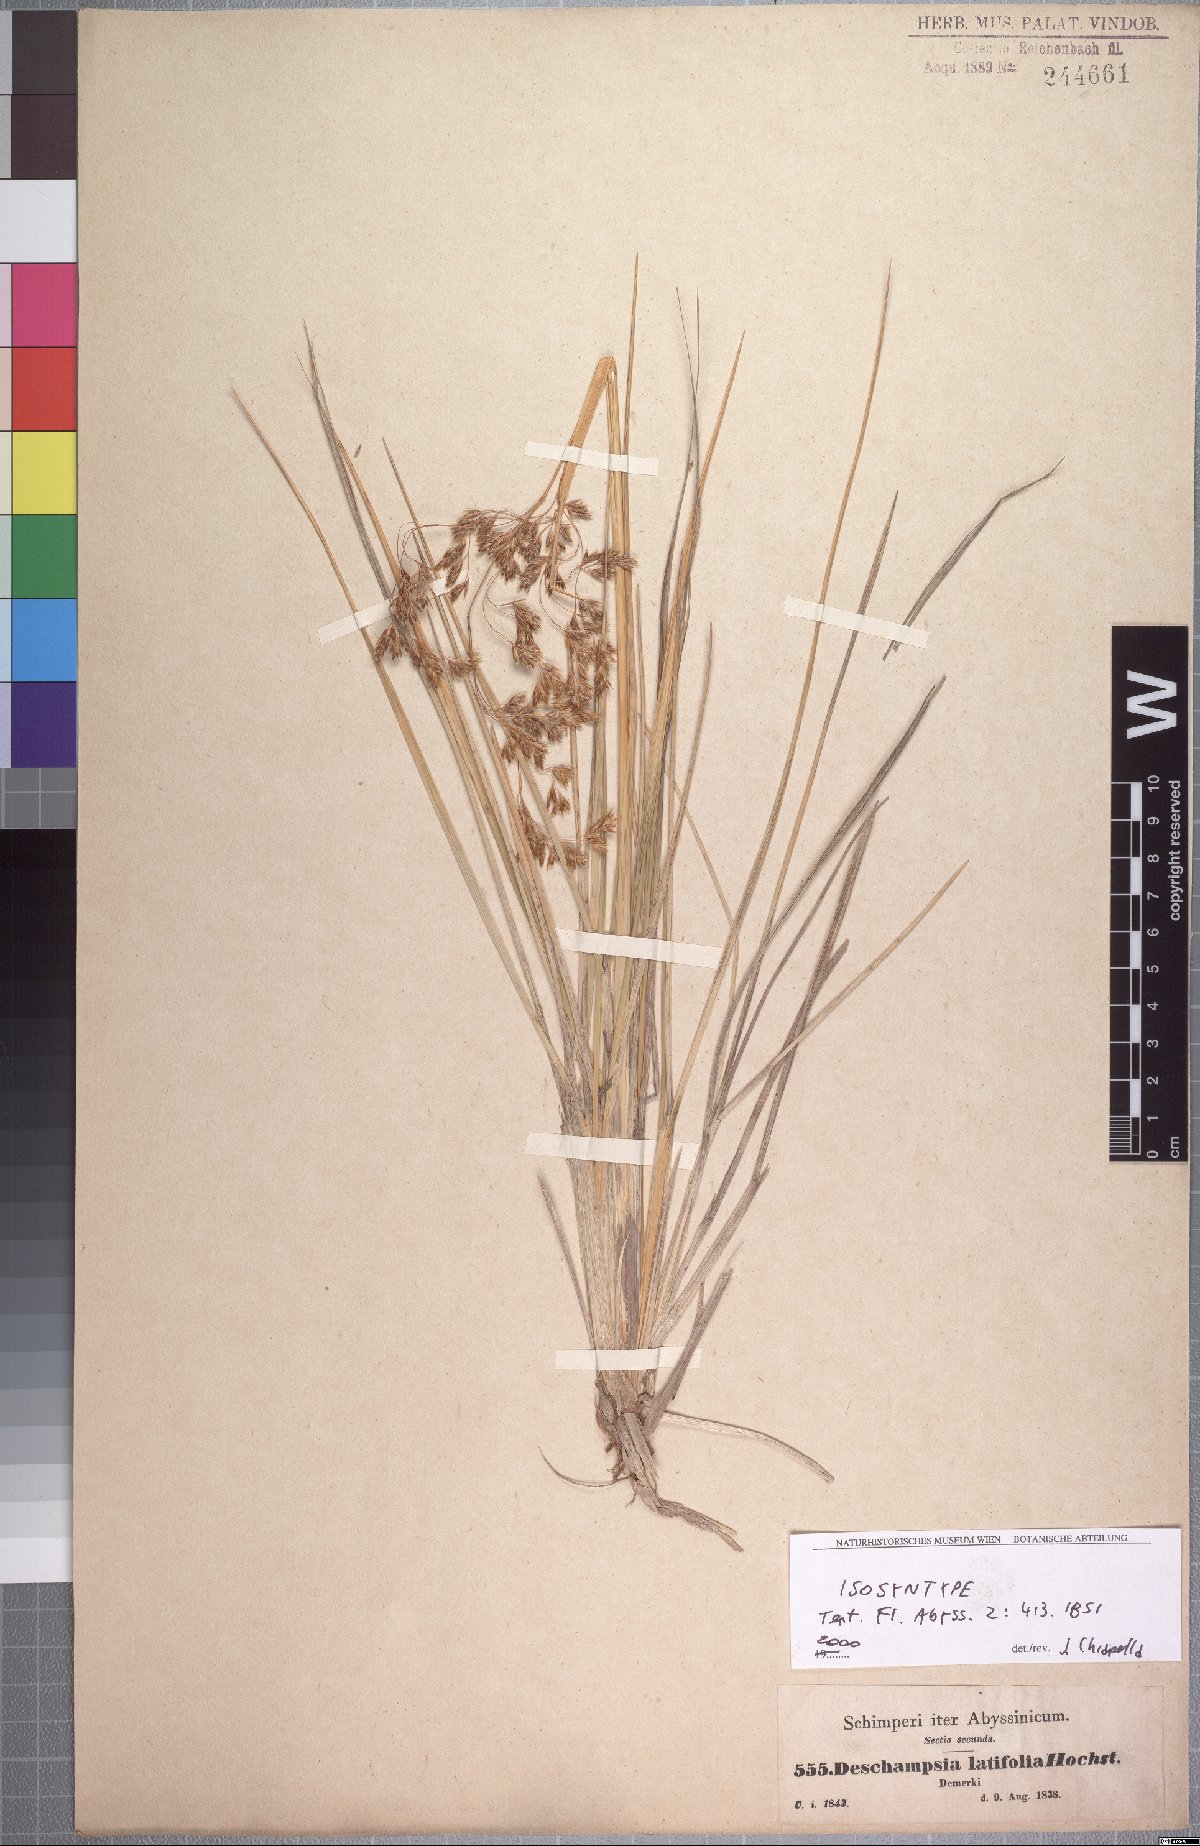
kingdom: Plantae
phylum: Tracheophyta
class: Liliopsida
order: Poales
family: Poaceae
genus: Deschampsia
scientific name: Deschampsia cespitosa
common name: Tufted hair-grass
